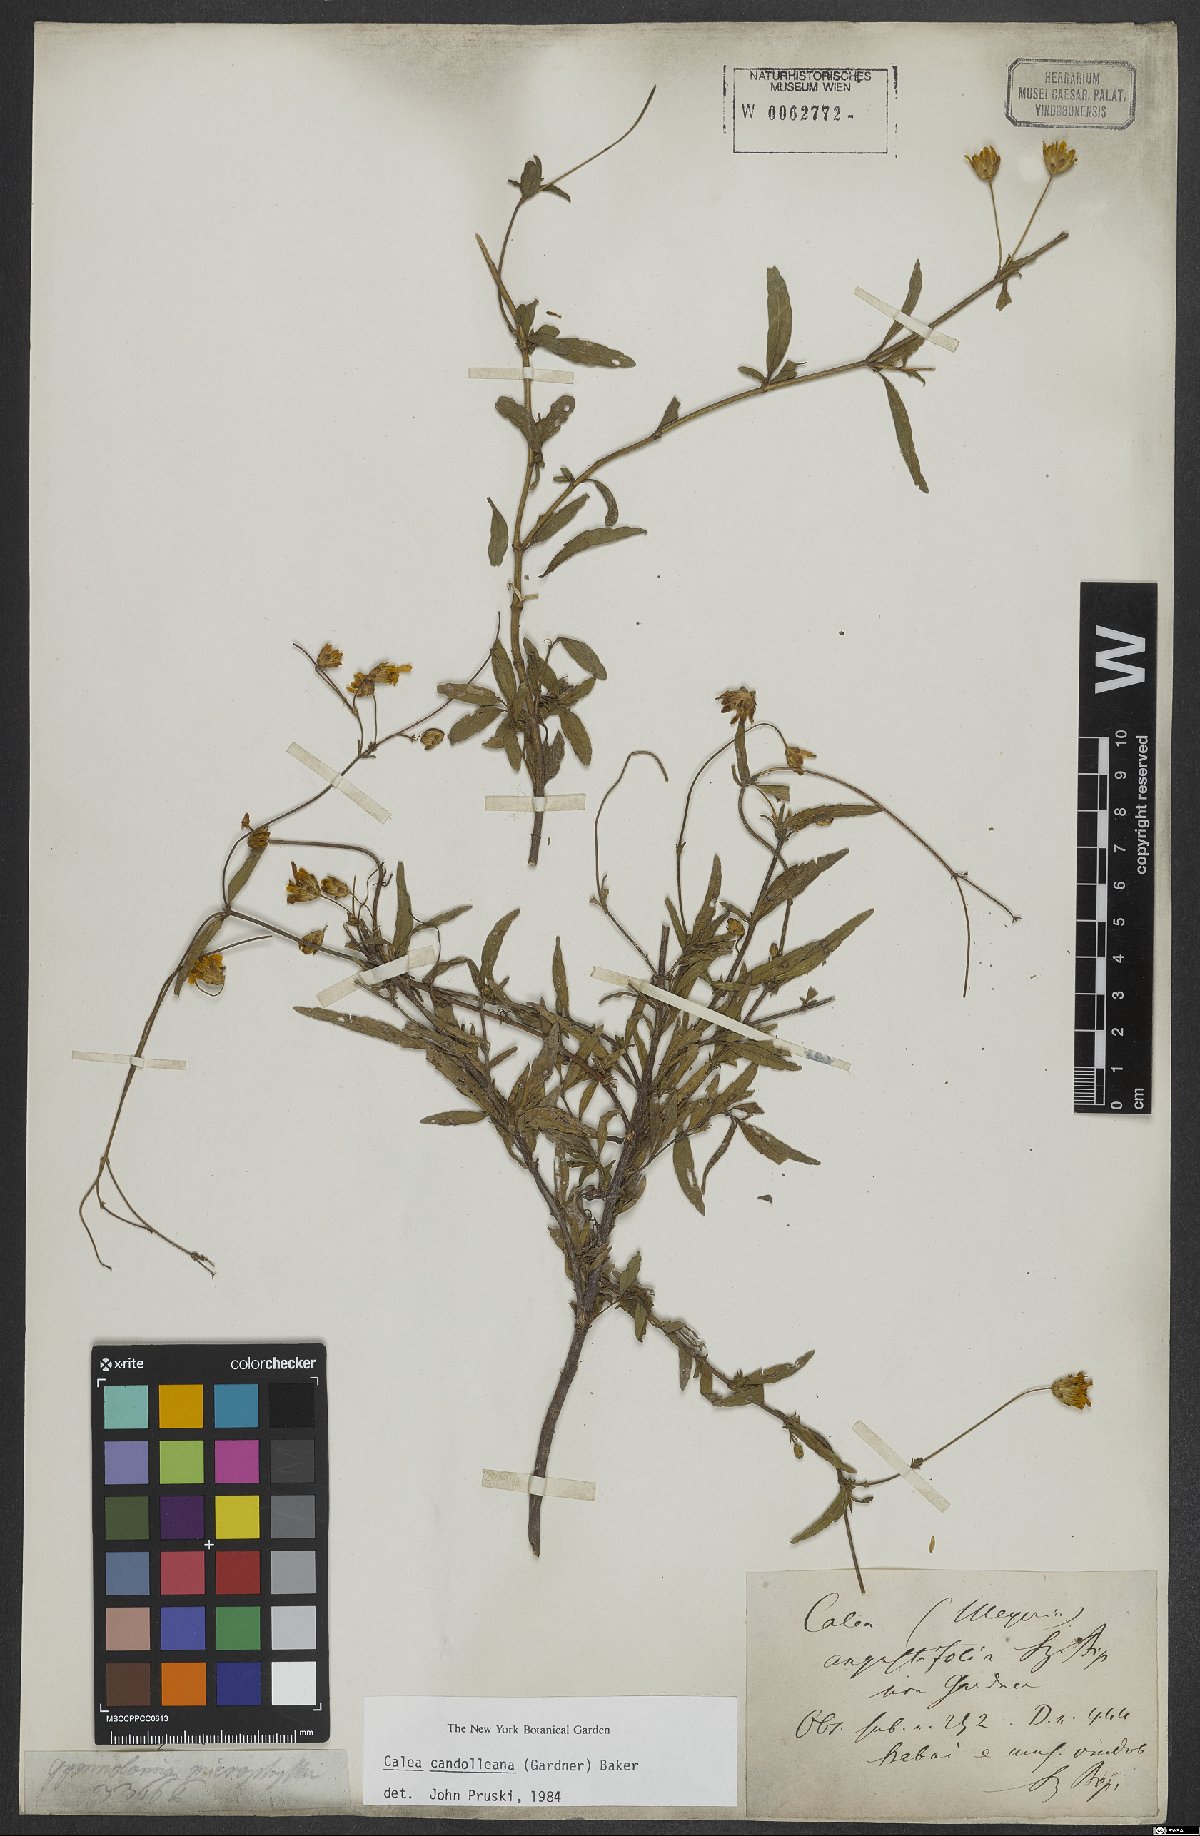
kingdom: Plantae
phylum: Tracheophyta
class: Magnoliopsida
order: Asterales
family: Asteraceae
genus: Calea
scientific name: Calea candolleana
